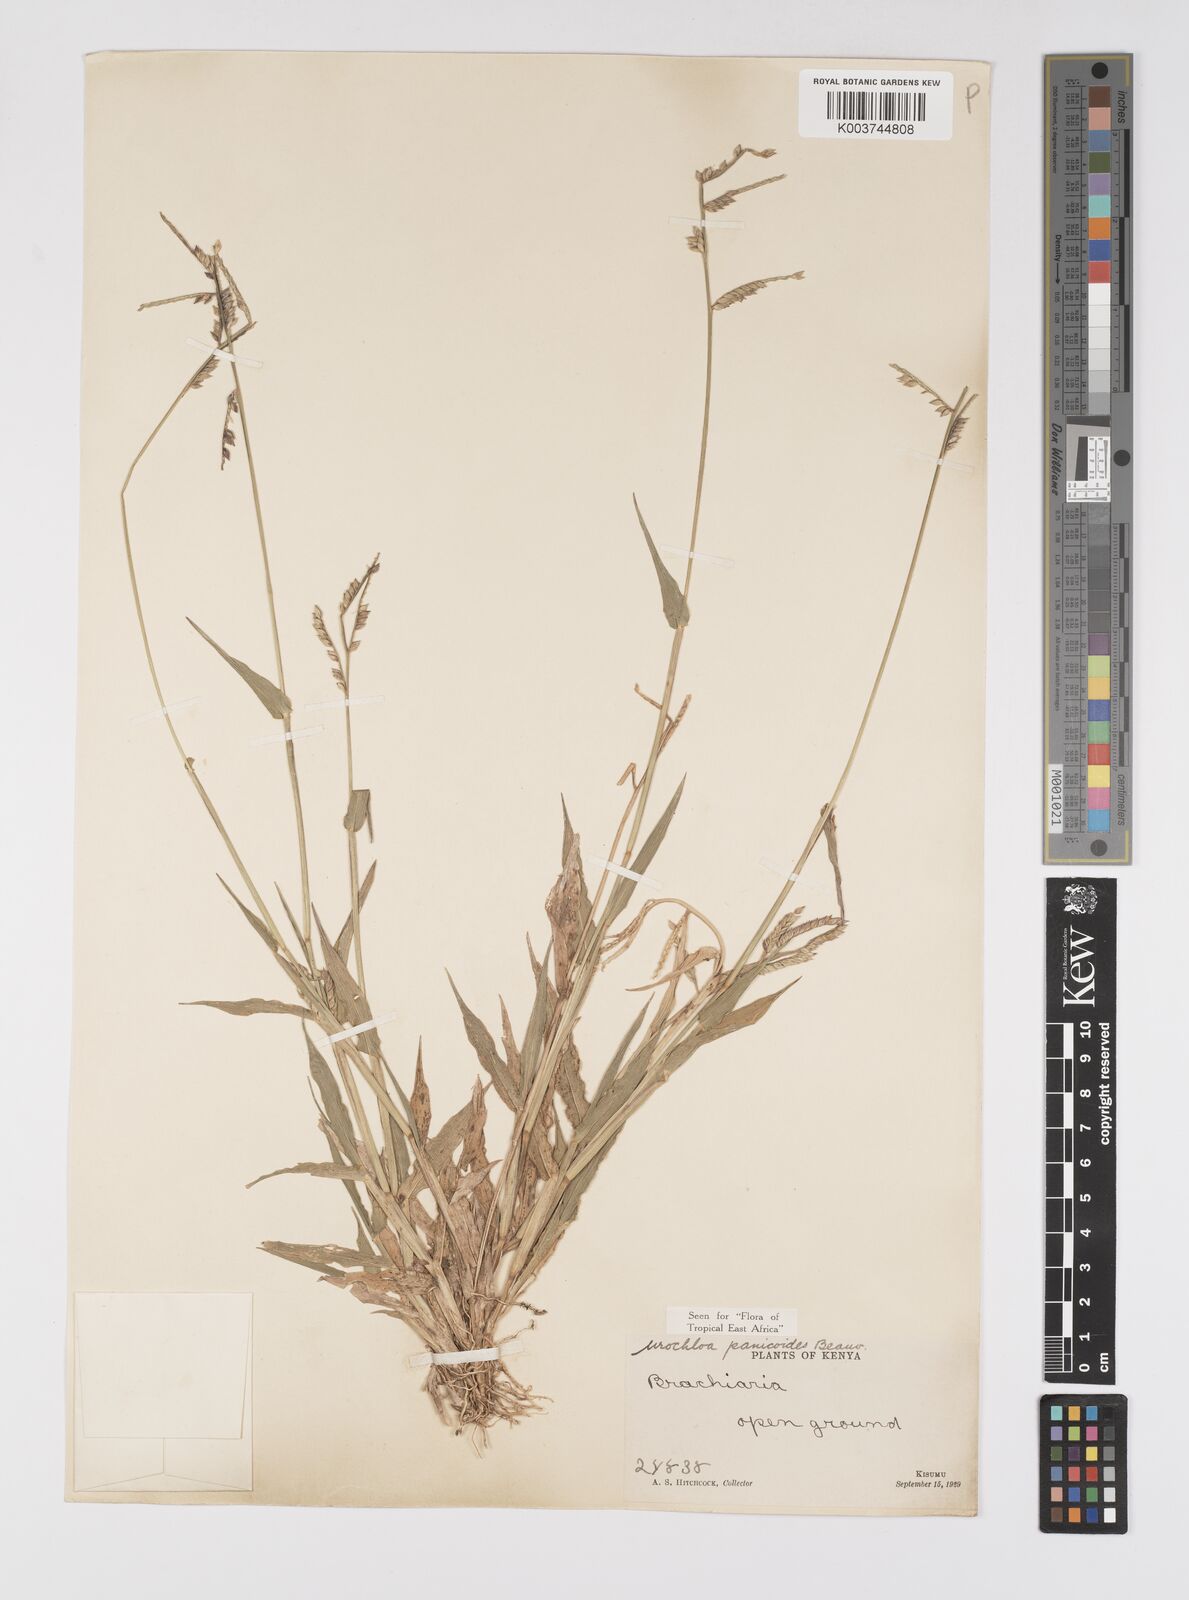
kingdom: Plantae
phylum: Tracheophyta
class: Liliopsida
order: Poales
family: Poaceae
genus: Urochloa
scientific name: Urochloa panicoides
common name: Sharp-flowered signal-grass
